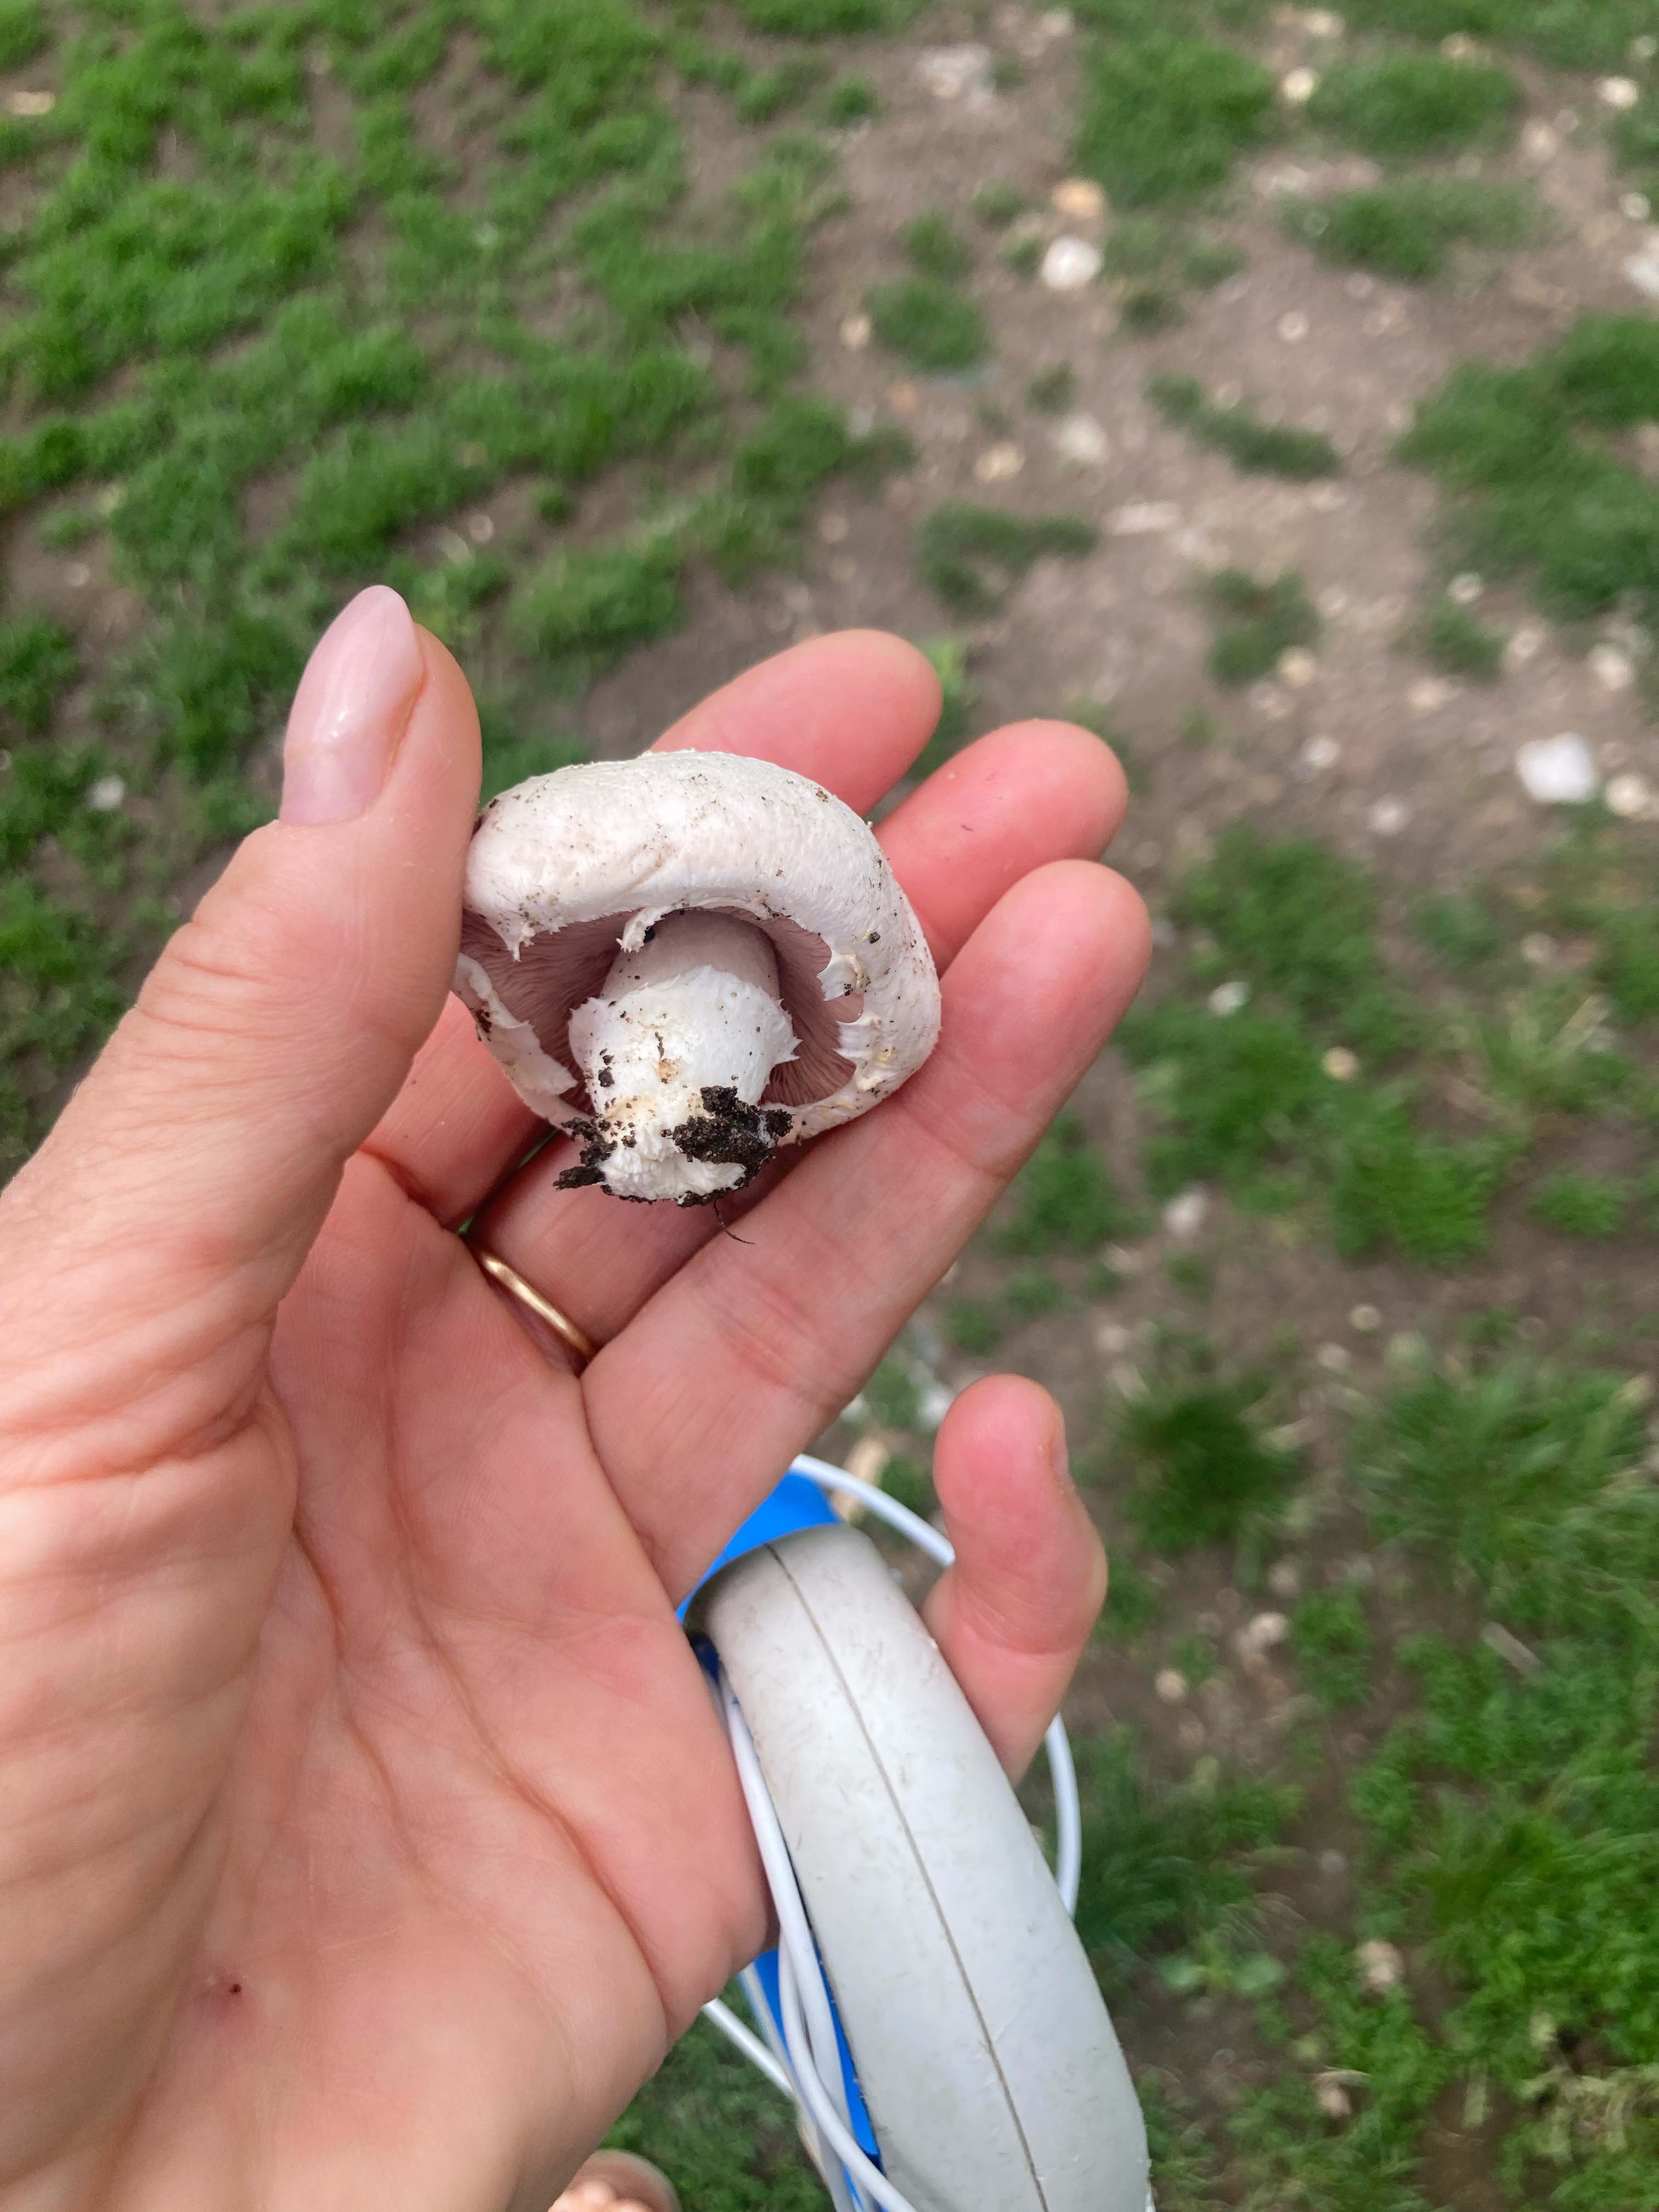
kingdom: Fungi
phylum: Basidiomycota
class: Agaricomycetes
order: Agaricales
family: Agaricaceae
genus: Agaricus
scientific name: Agaricus
